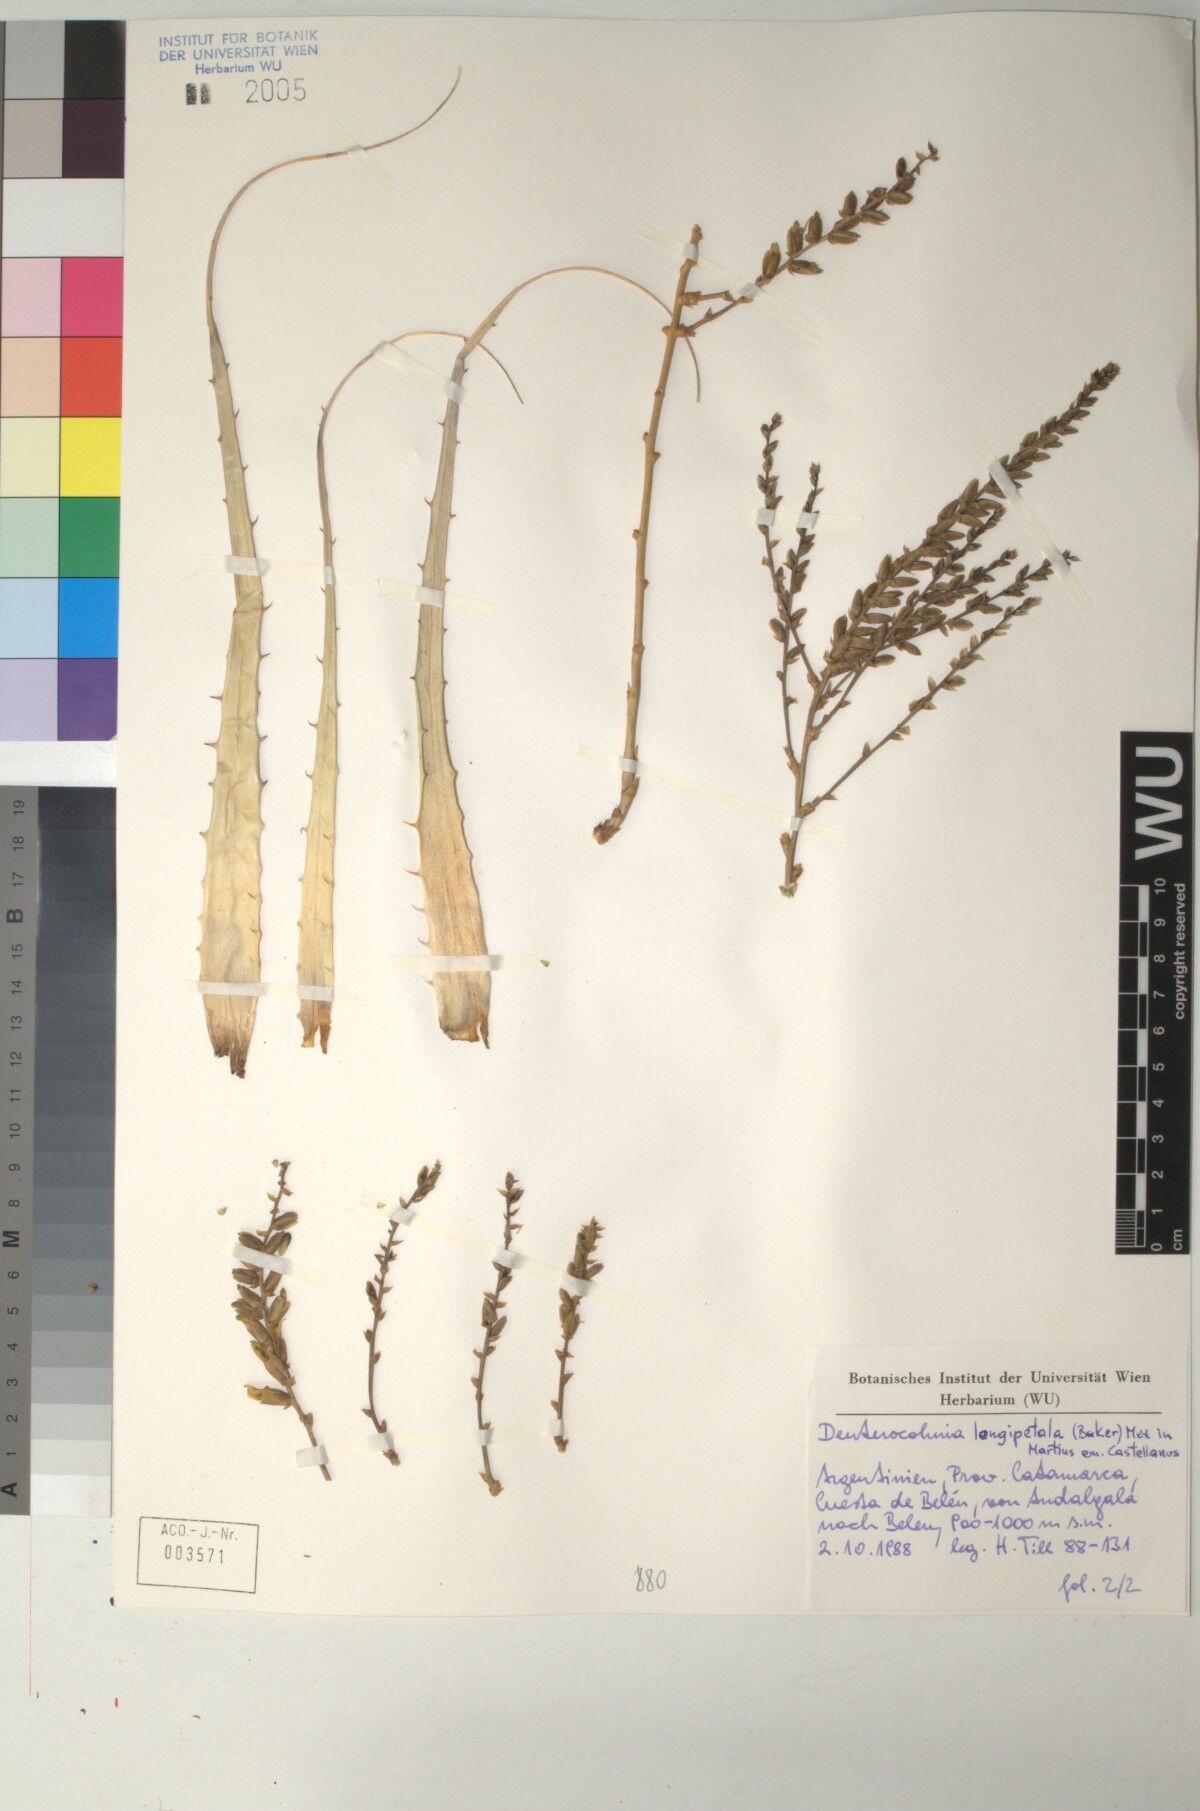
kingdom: Plantae
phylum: Tracheophyta
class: Liliopsida
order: Poales
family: Bromeliaceae
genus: Deuterocohnia
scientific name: Deuterocohnia longipetala
